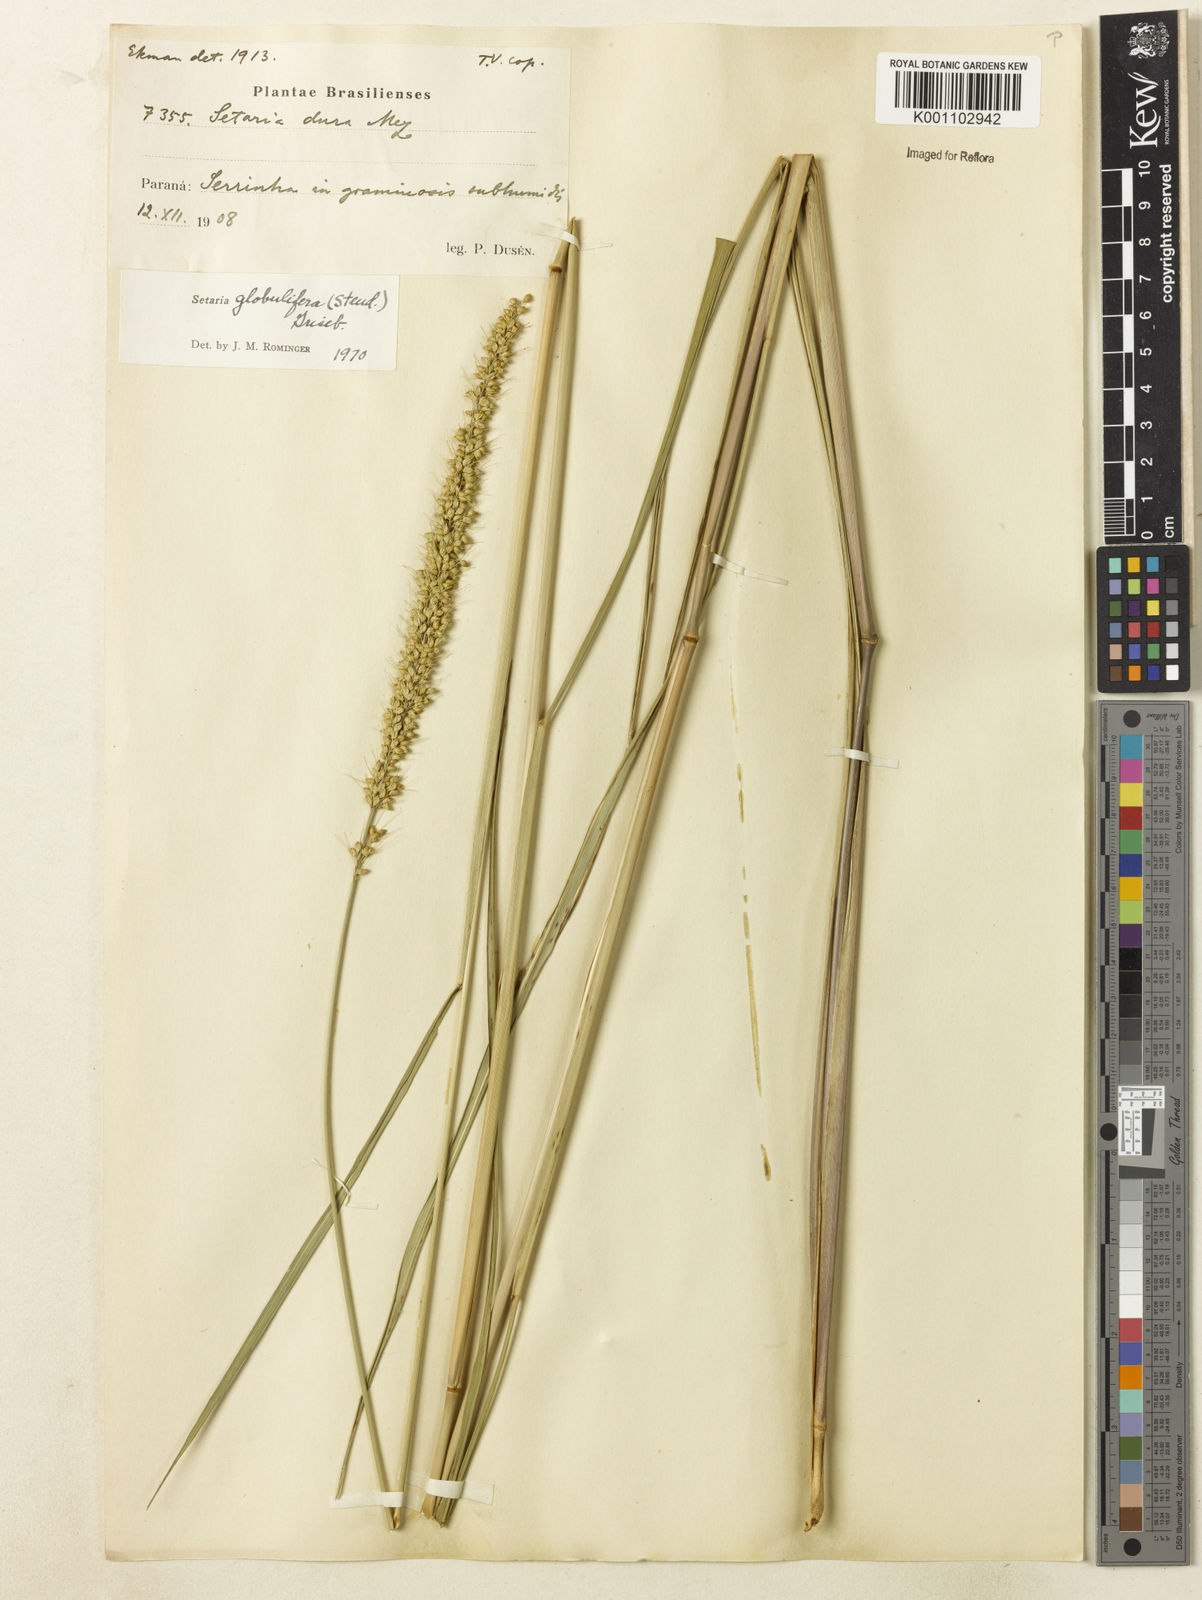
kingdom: Plantae
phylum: Tracheophyta
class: Liliopsida
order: Poales
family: Poaceae
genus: Setaria
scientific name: Setaria globulifera
